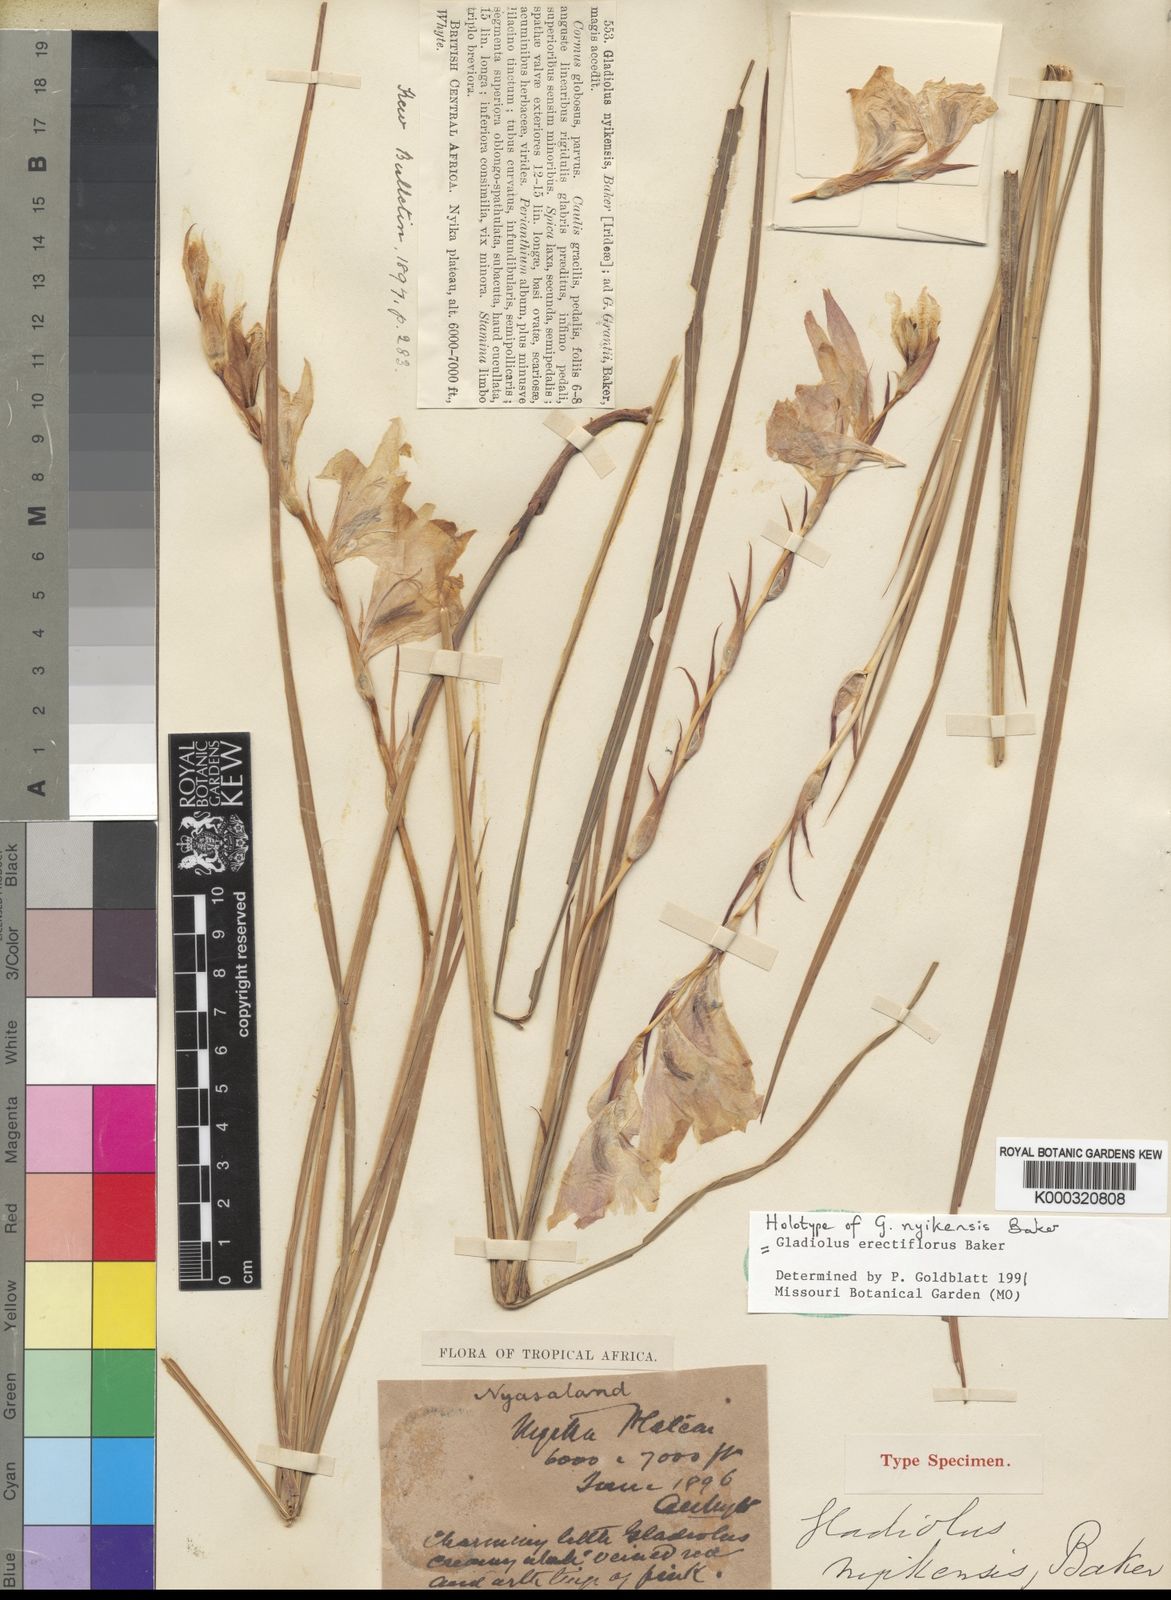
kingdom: Plantae
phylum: Tracheophyta
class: Liliopsida
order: Asparagales
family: Iridaceae
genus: Gladiolus
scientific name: Gladiolus erectiflorus
